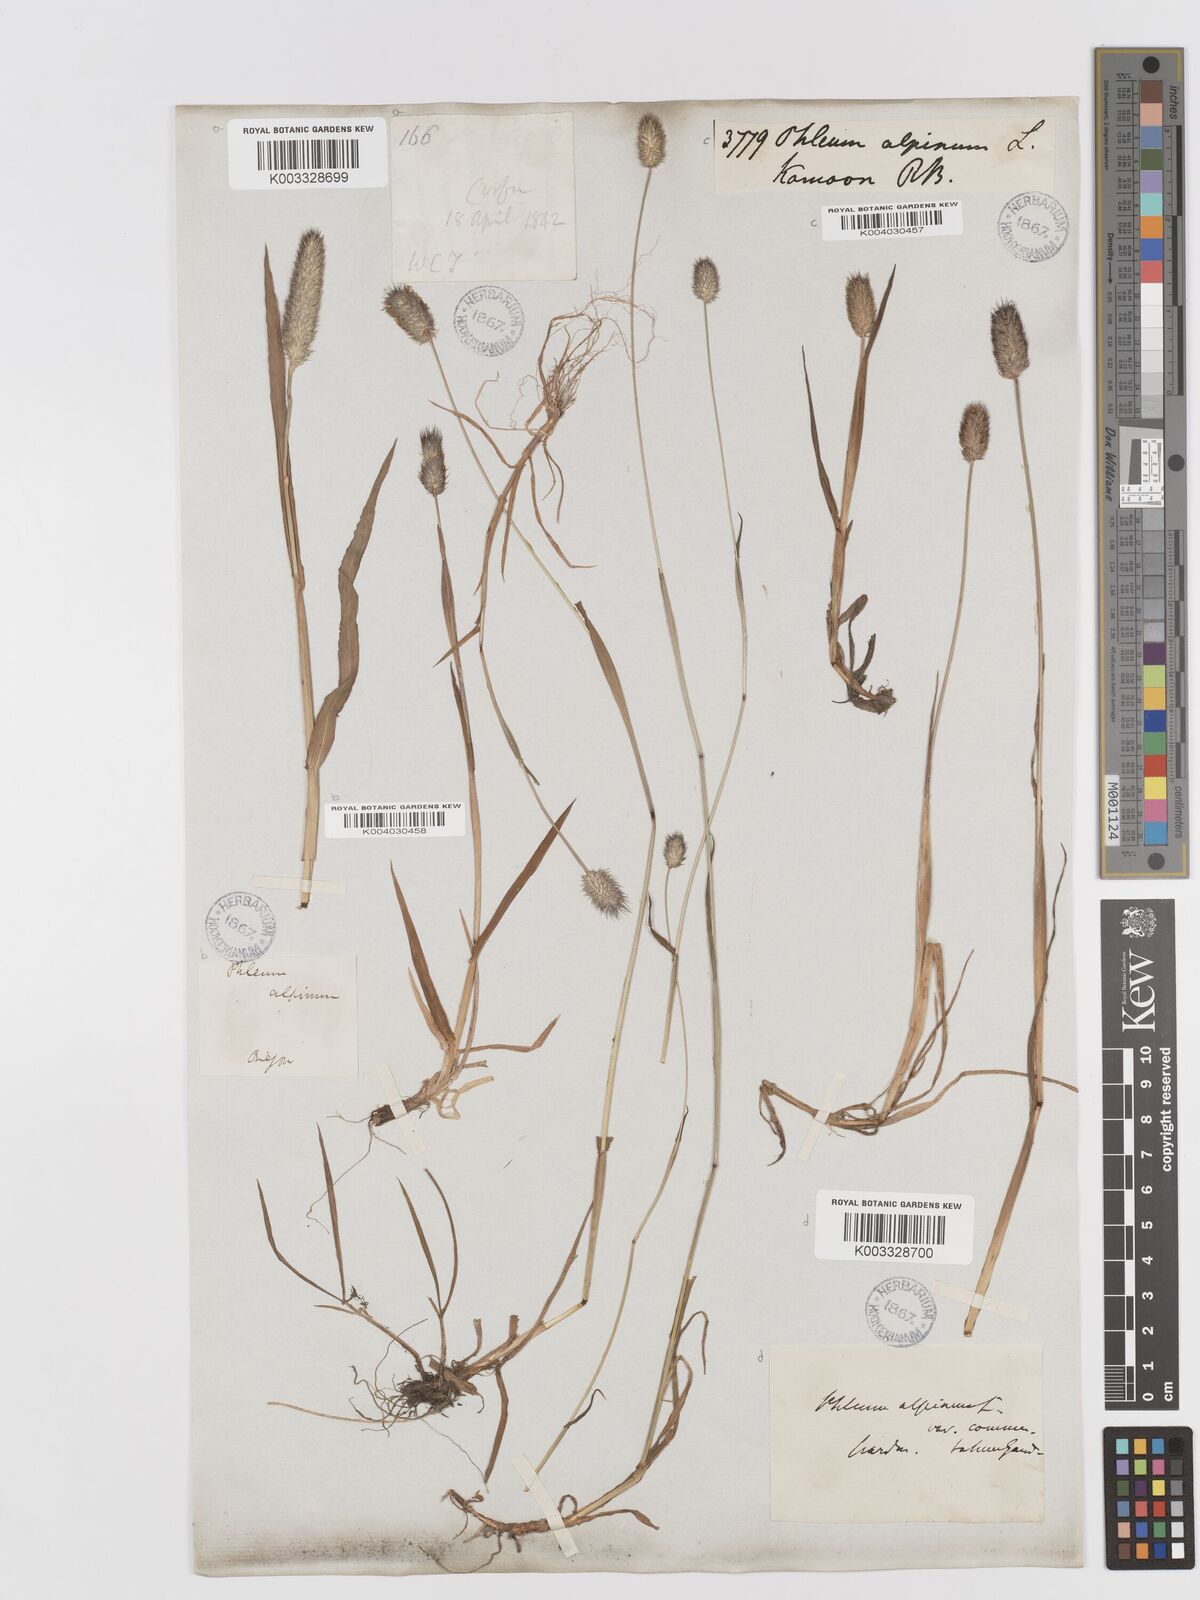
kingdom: Plantae
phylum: Tracheophyta
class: Liliopsida
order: Poales
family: Poaceae
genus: Phleum
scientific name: Phleum alpinum
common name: Alpine cat's-tail
